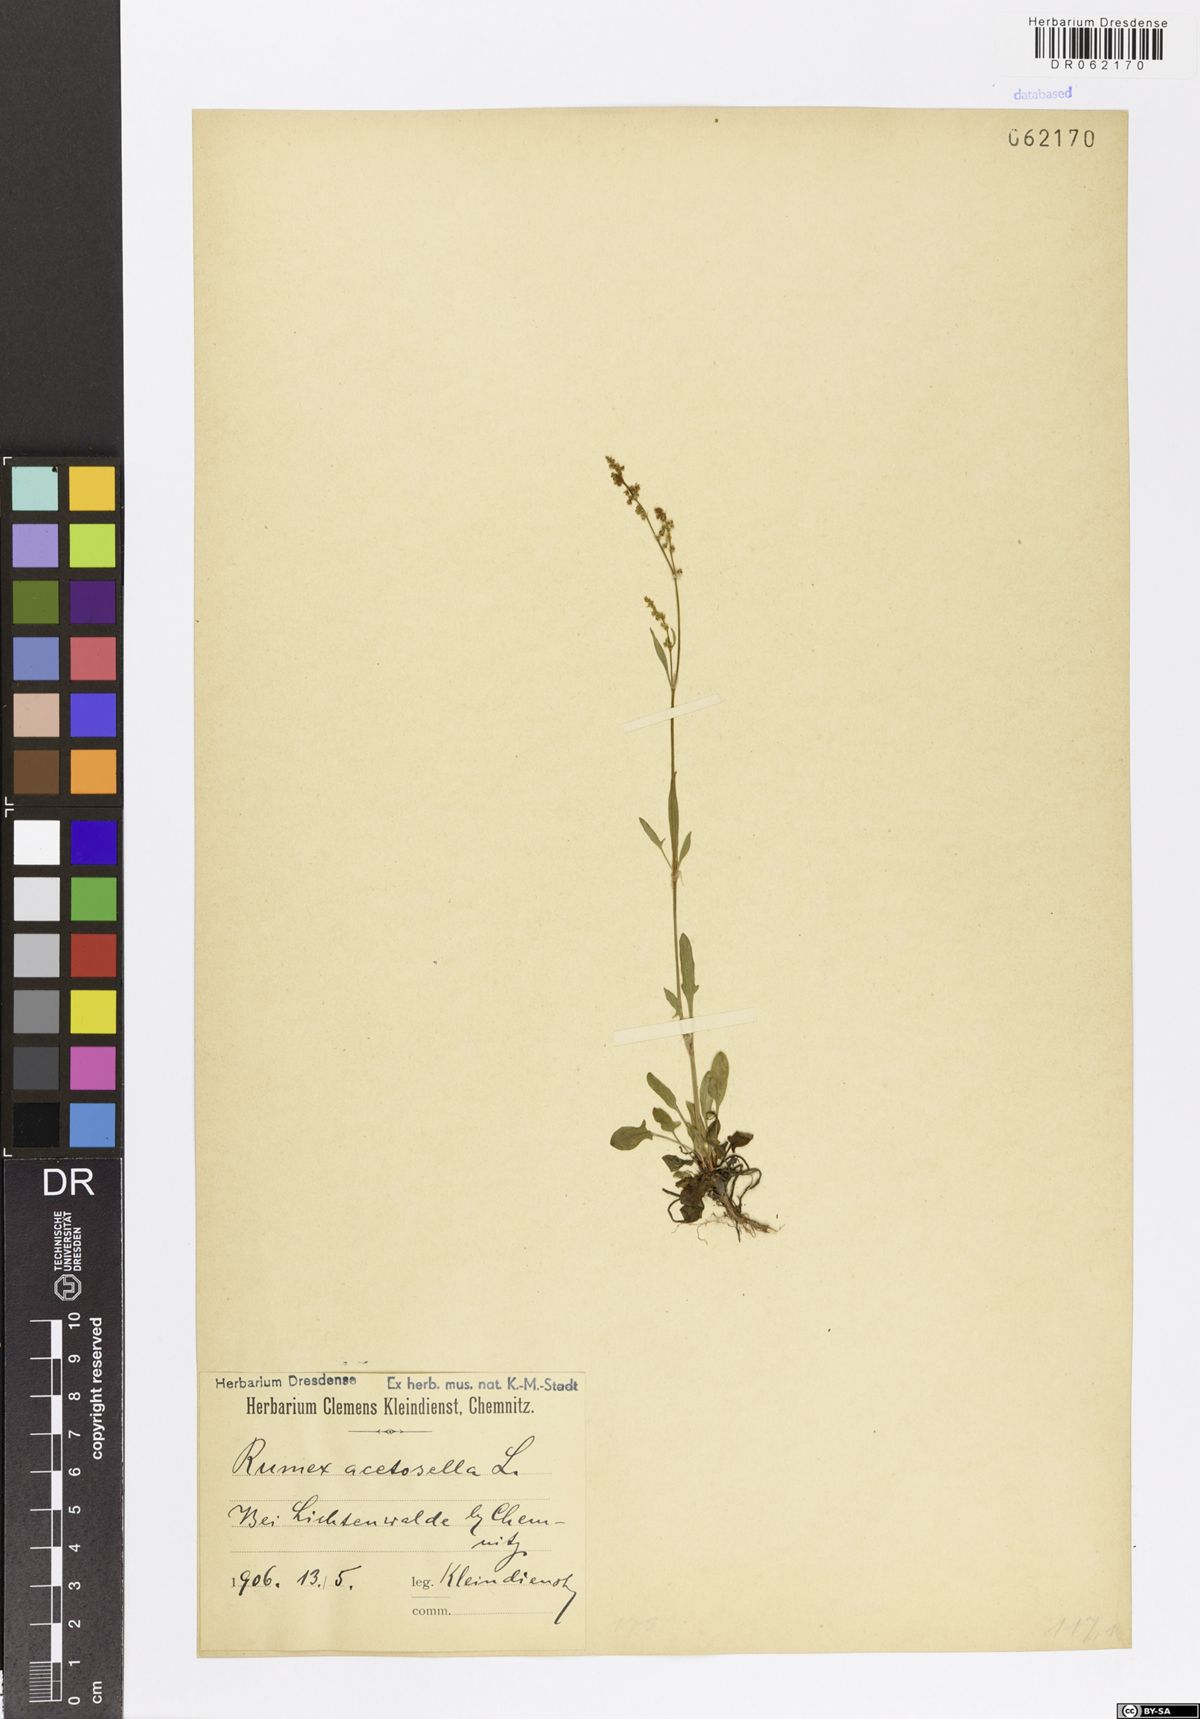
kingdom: Plantae
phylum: Tracheophyta
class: Magnoliopsida
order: Caryophyllales
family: Polygonaceae
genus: Rumex
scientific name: Rumex acetosella
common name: Common sheep sorrel
